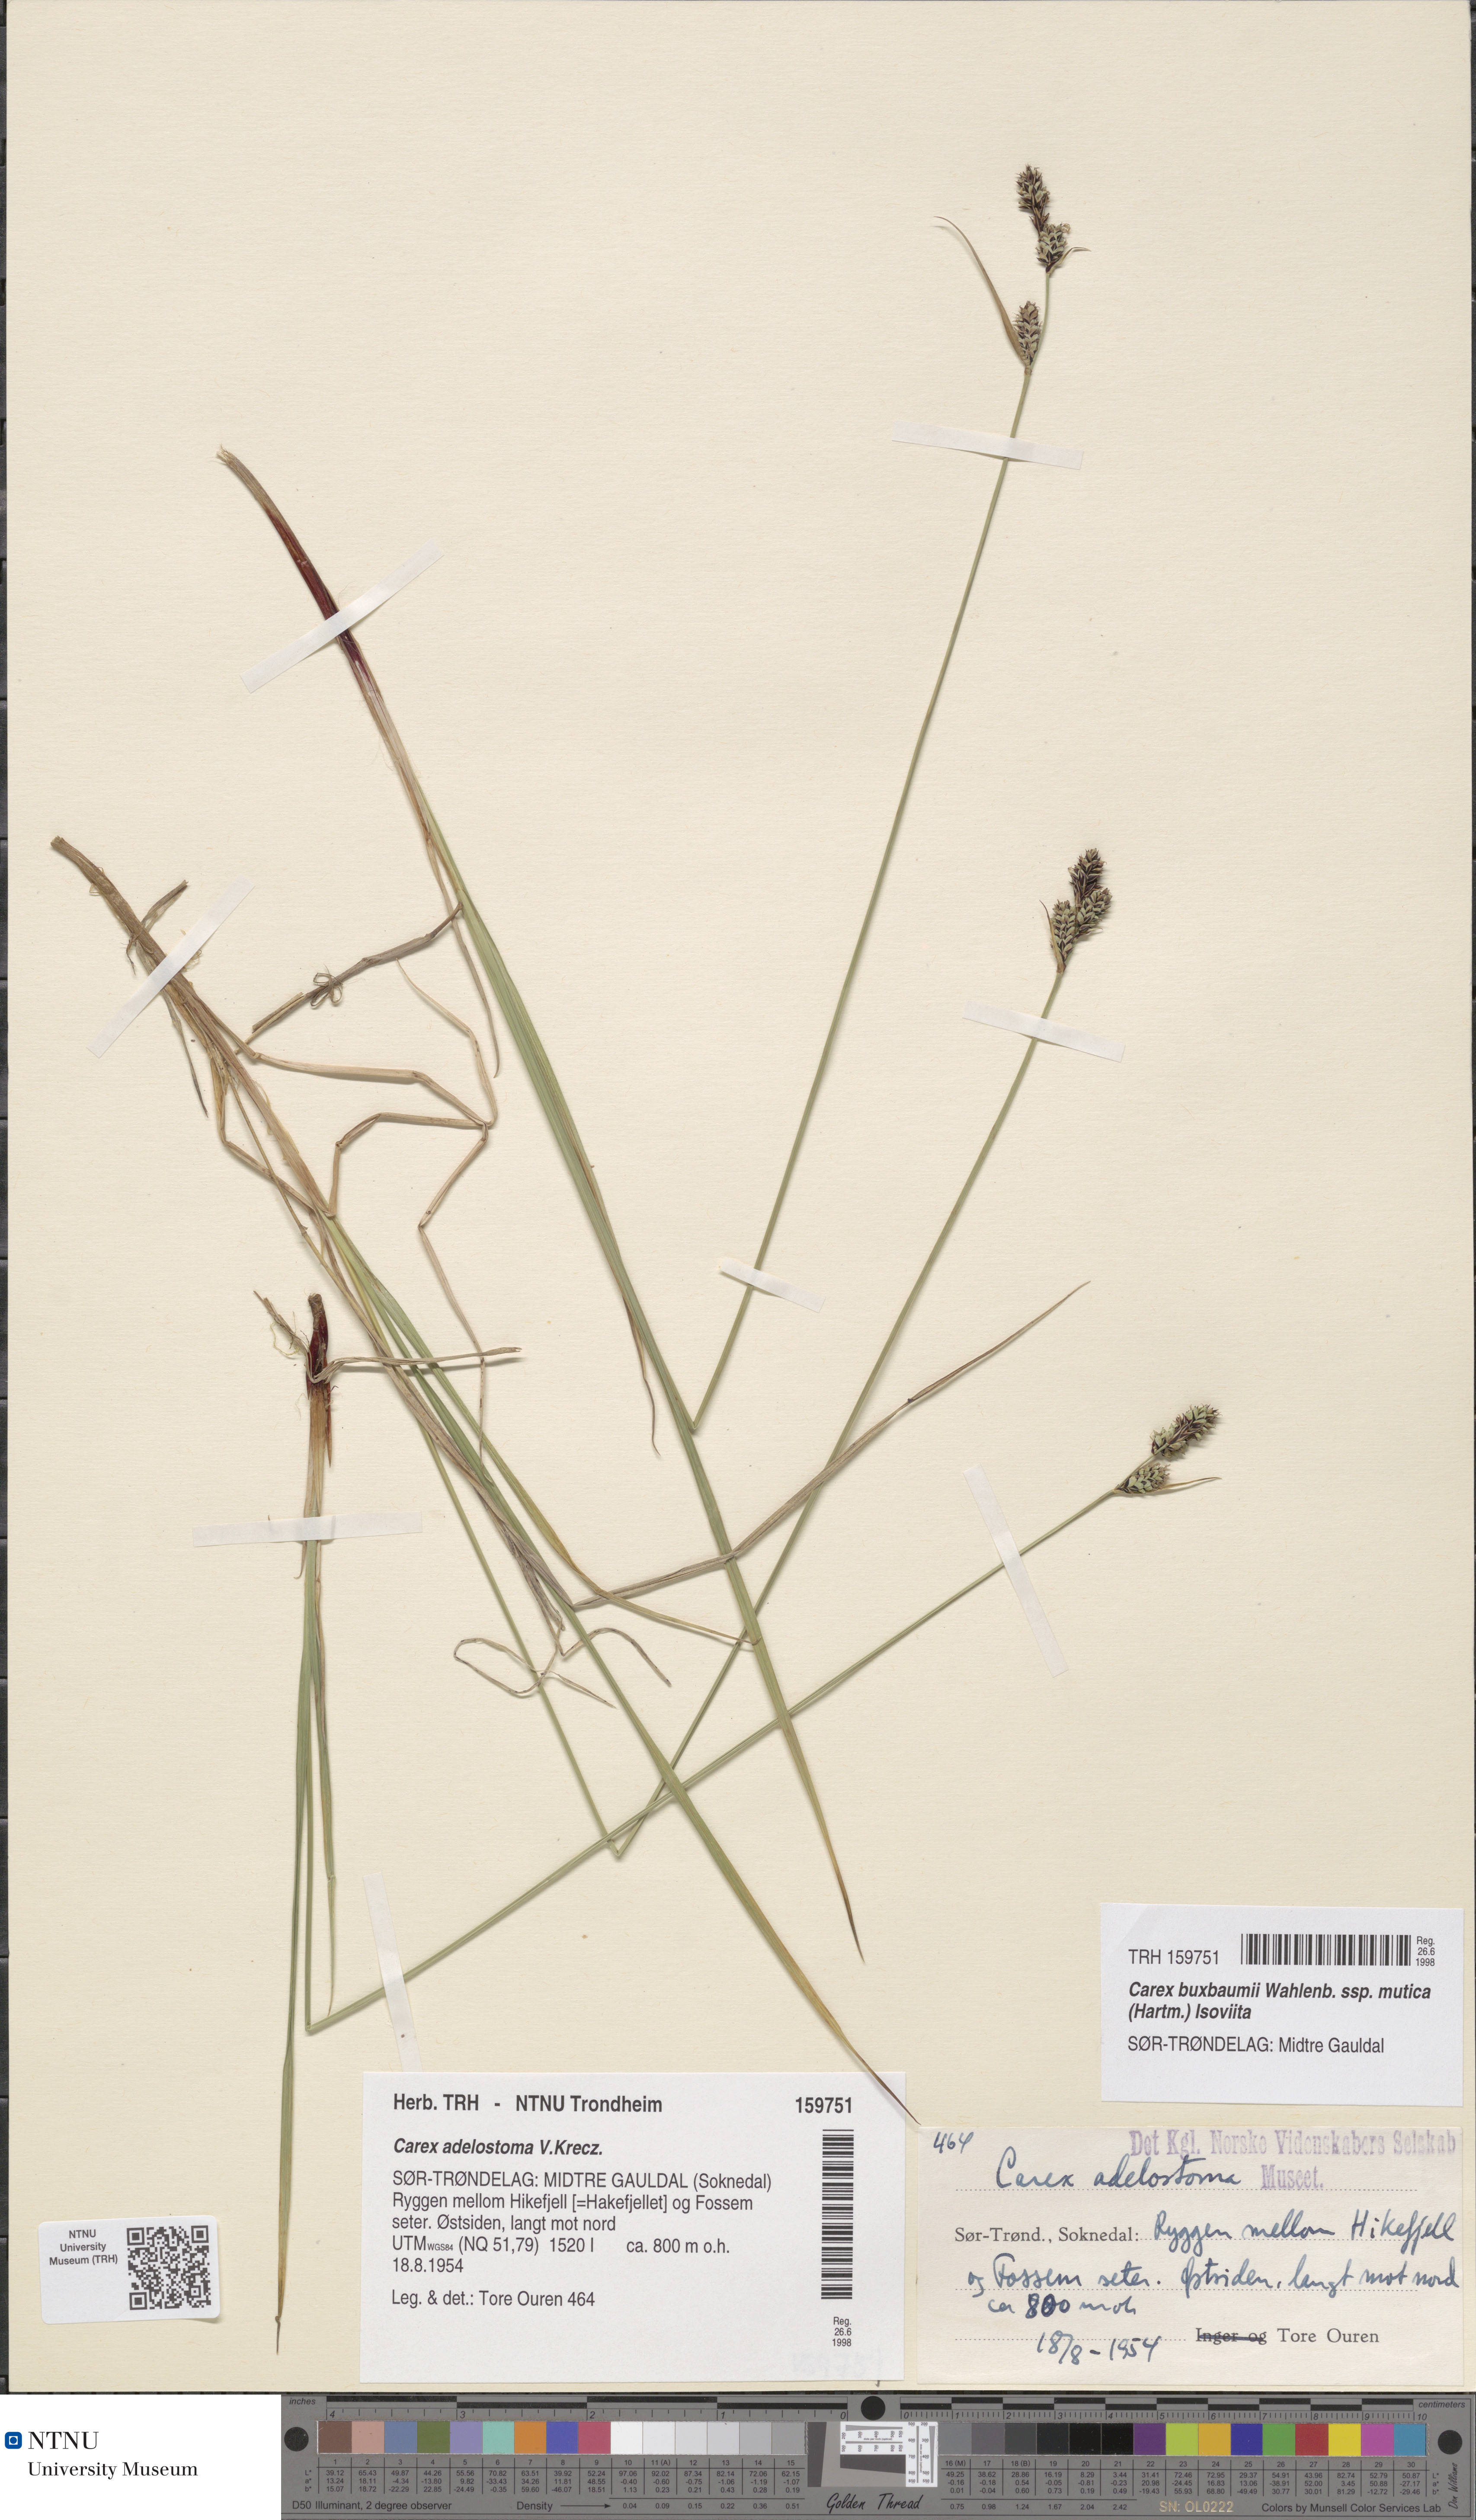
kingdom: Plantae
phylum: Tracheophyta
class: Liliopsida
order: Poales
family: Cyperaceae
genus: Carex
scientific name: Carex adelostoma
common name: Circumpolar sedge
